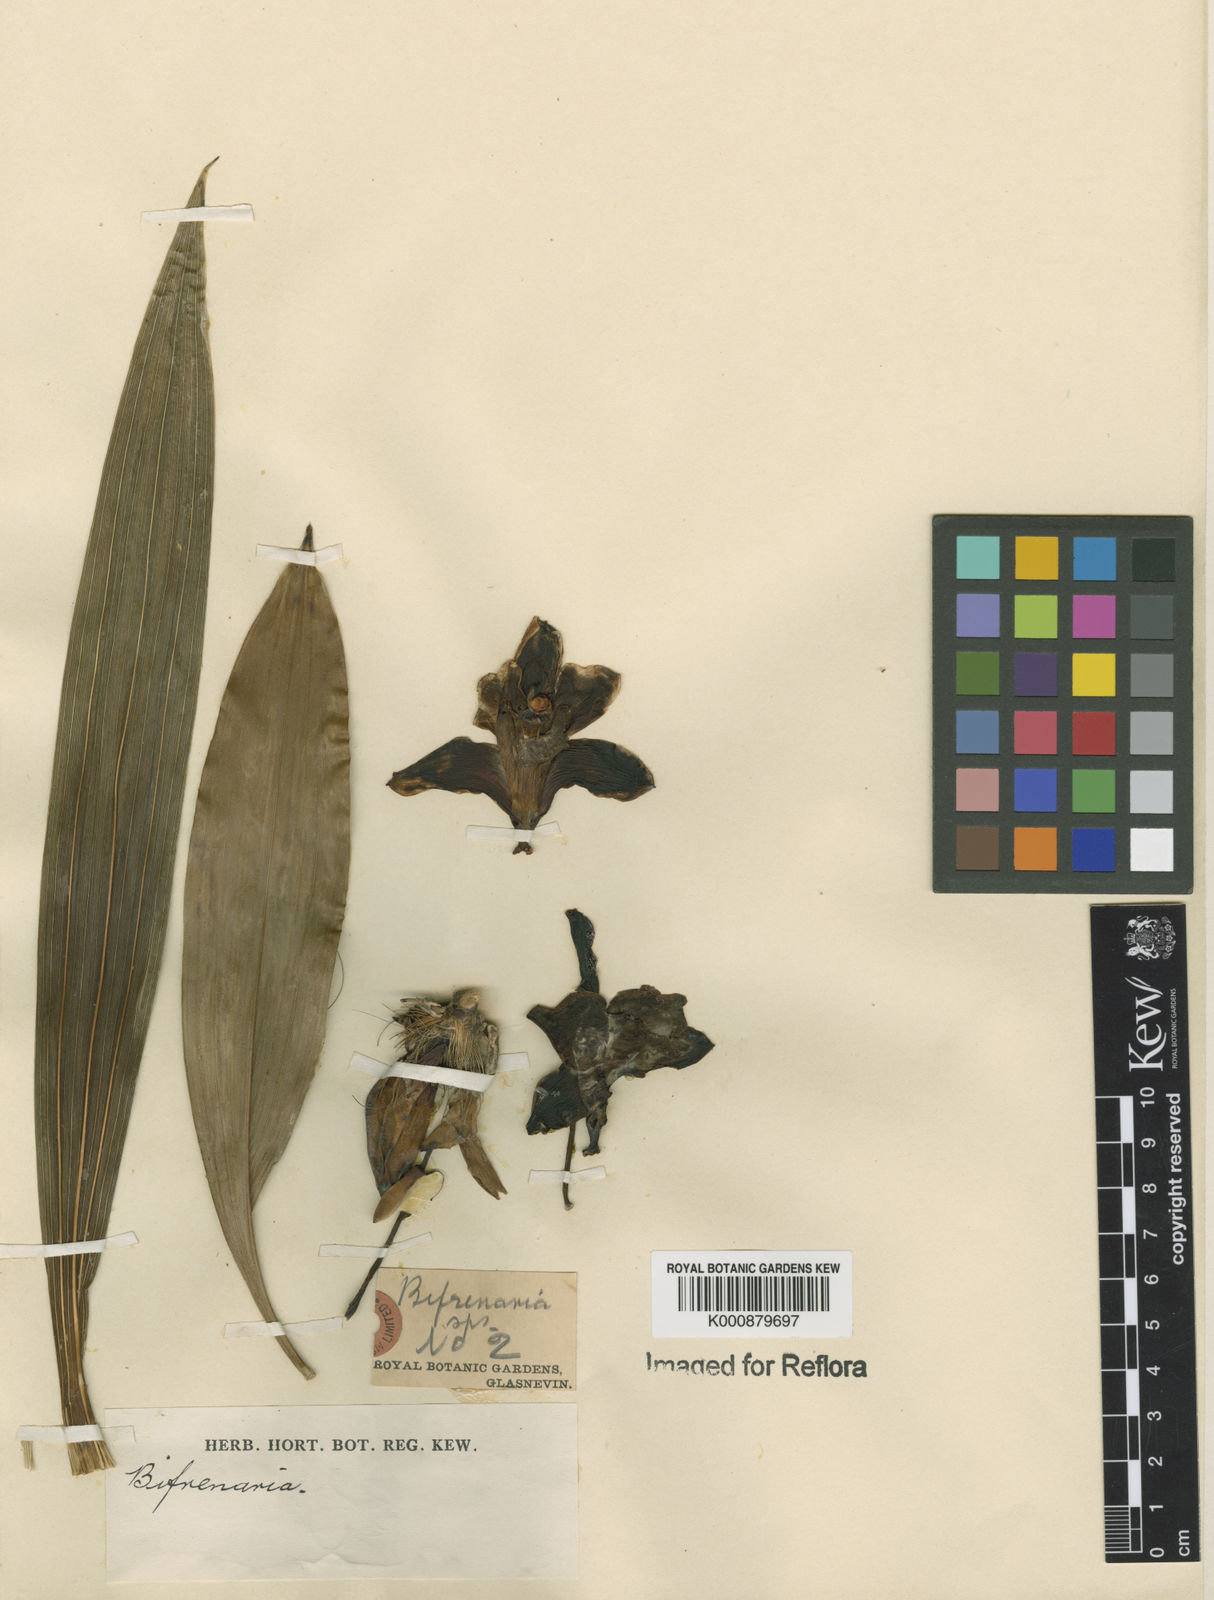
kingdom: Plantae
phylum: Tracheophyta
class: Liliopsida
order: Asparagales
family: Orchidaceae
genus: Bifrenaria
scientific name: Bifrenaria
